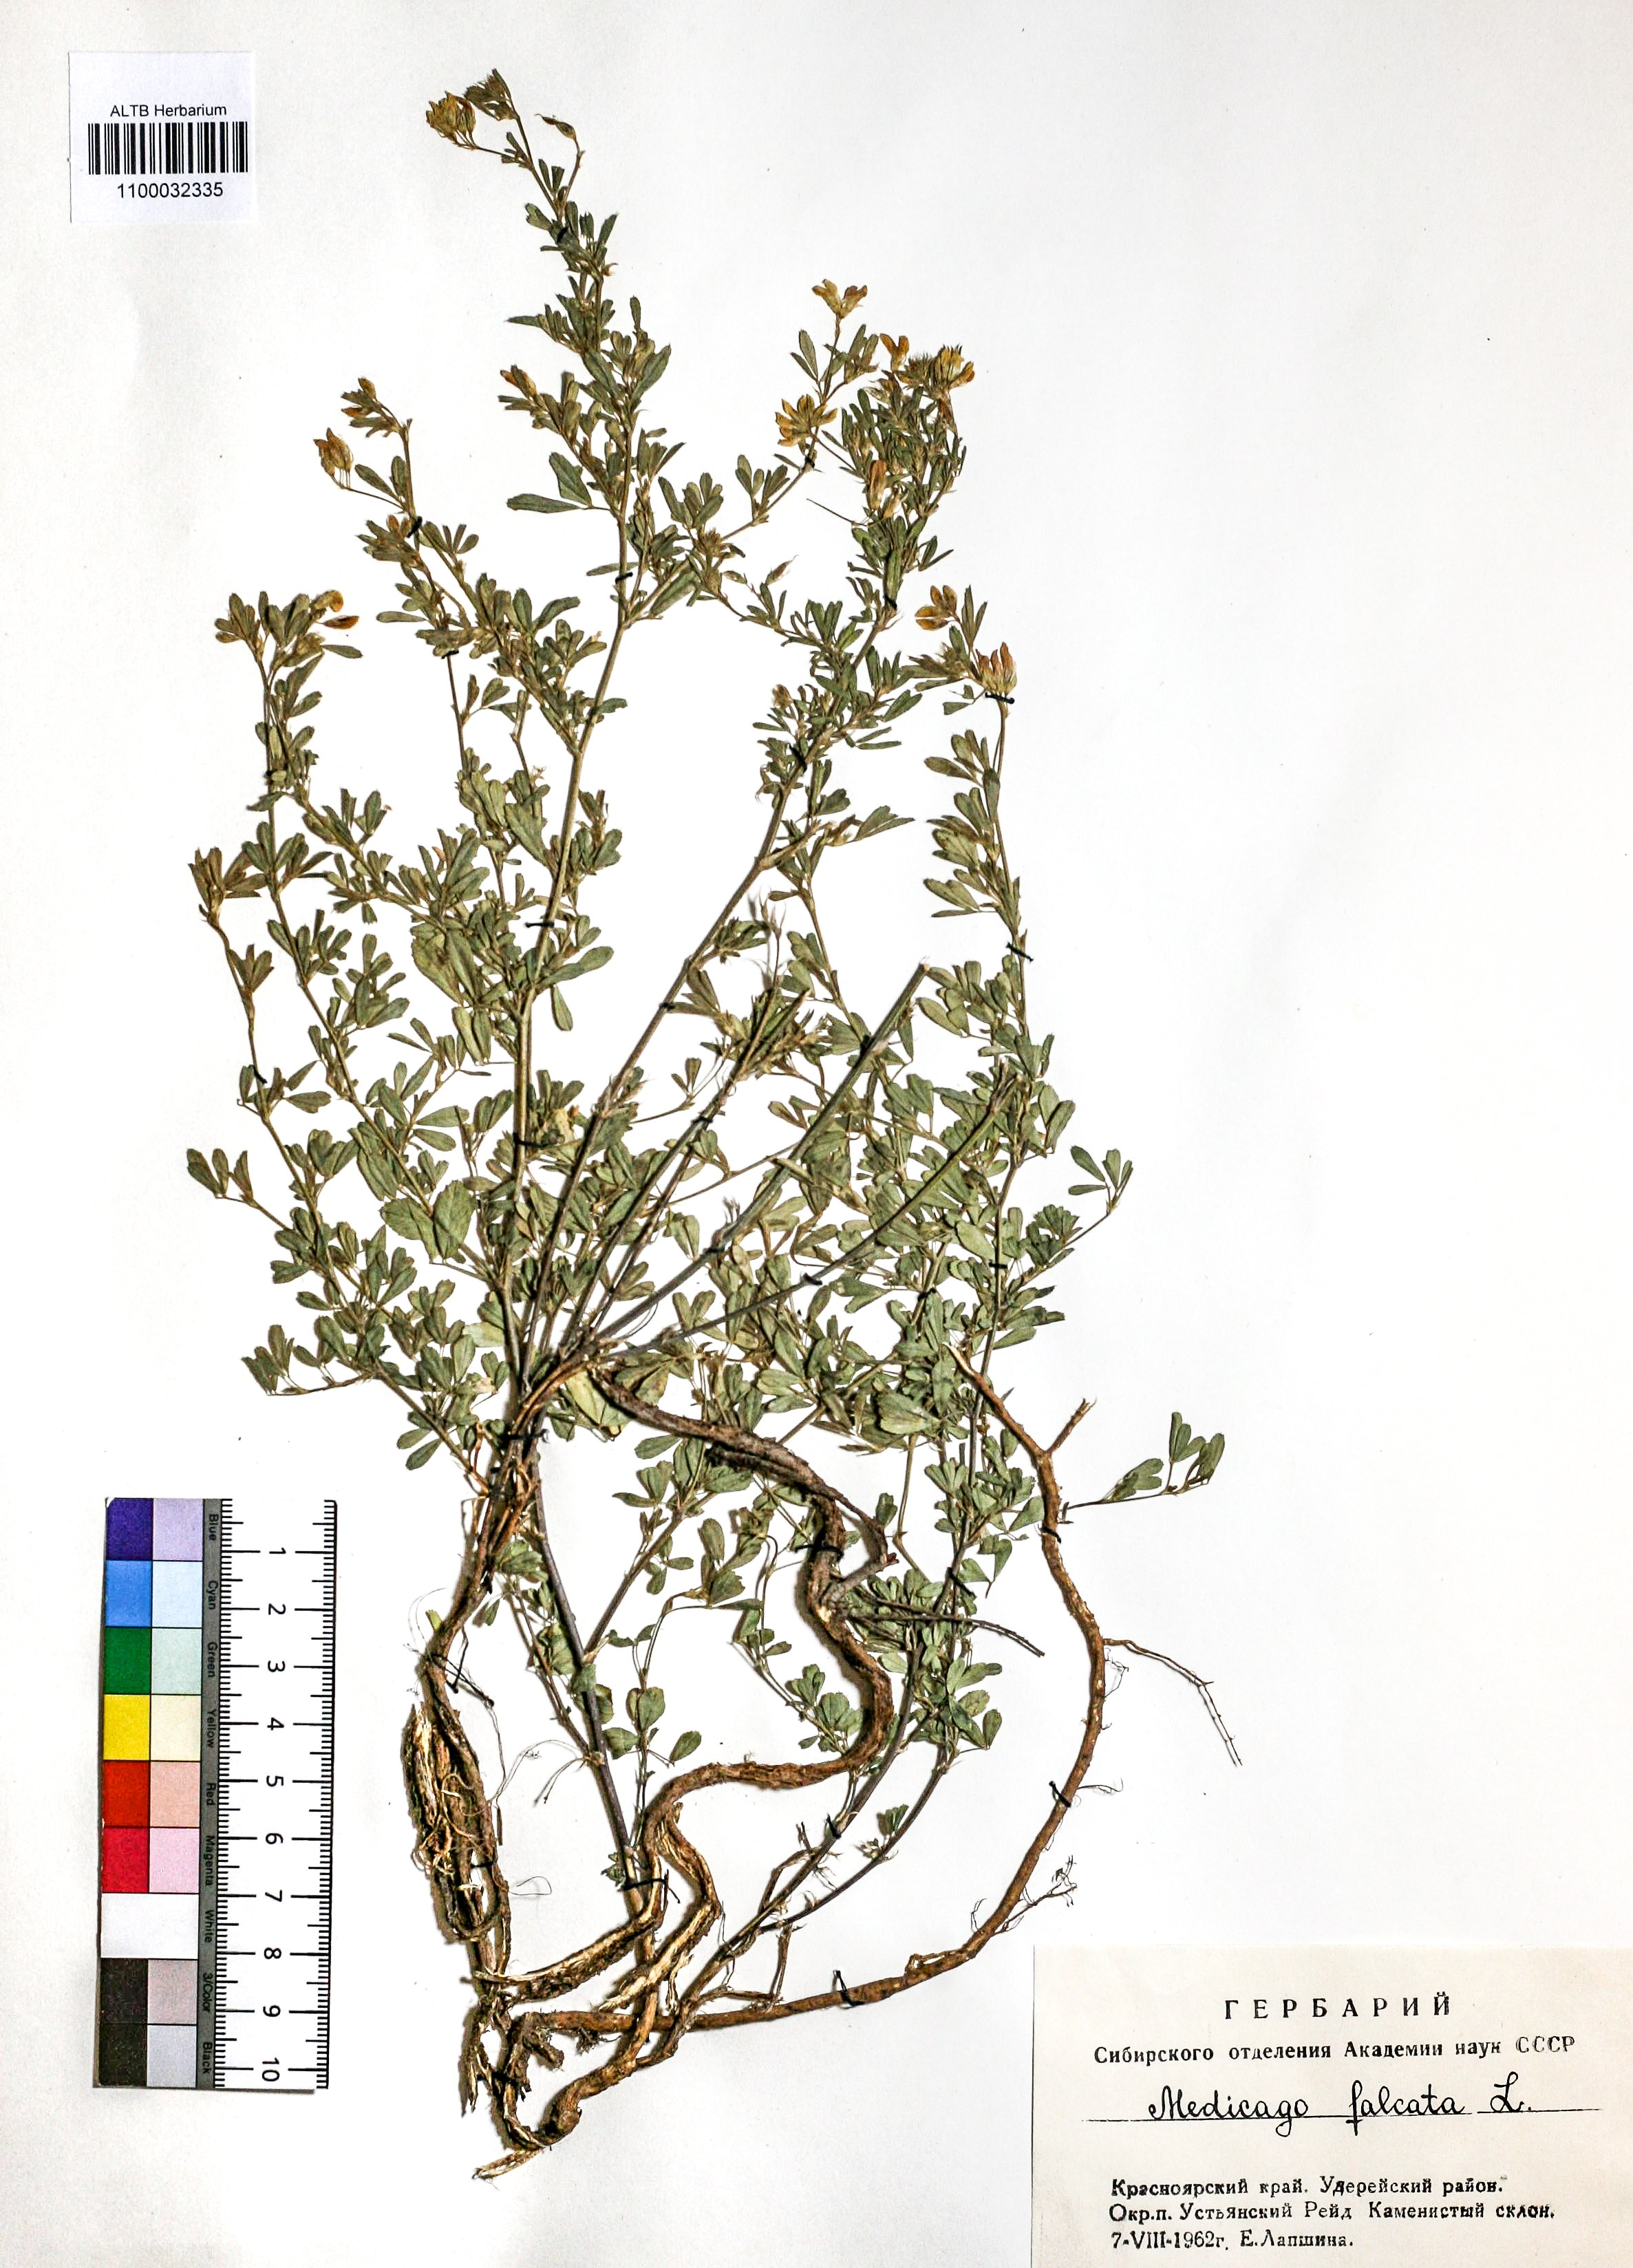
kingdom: Plantae
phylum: Tracheophyta
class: Magnoliopsida
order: Fabales
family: Fabaceae
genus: Medicago
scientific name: Medicago falcata
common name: Sickle medick
